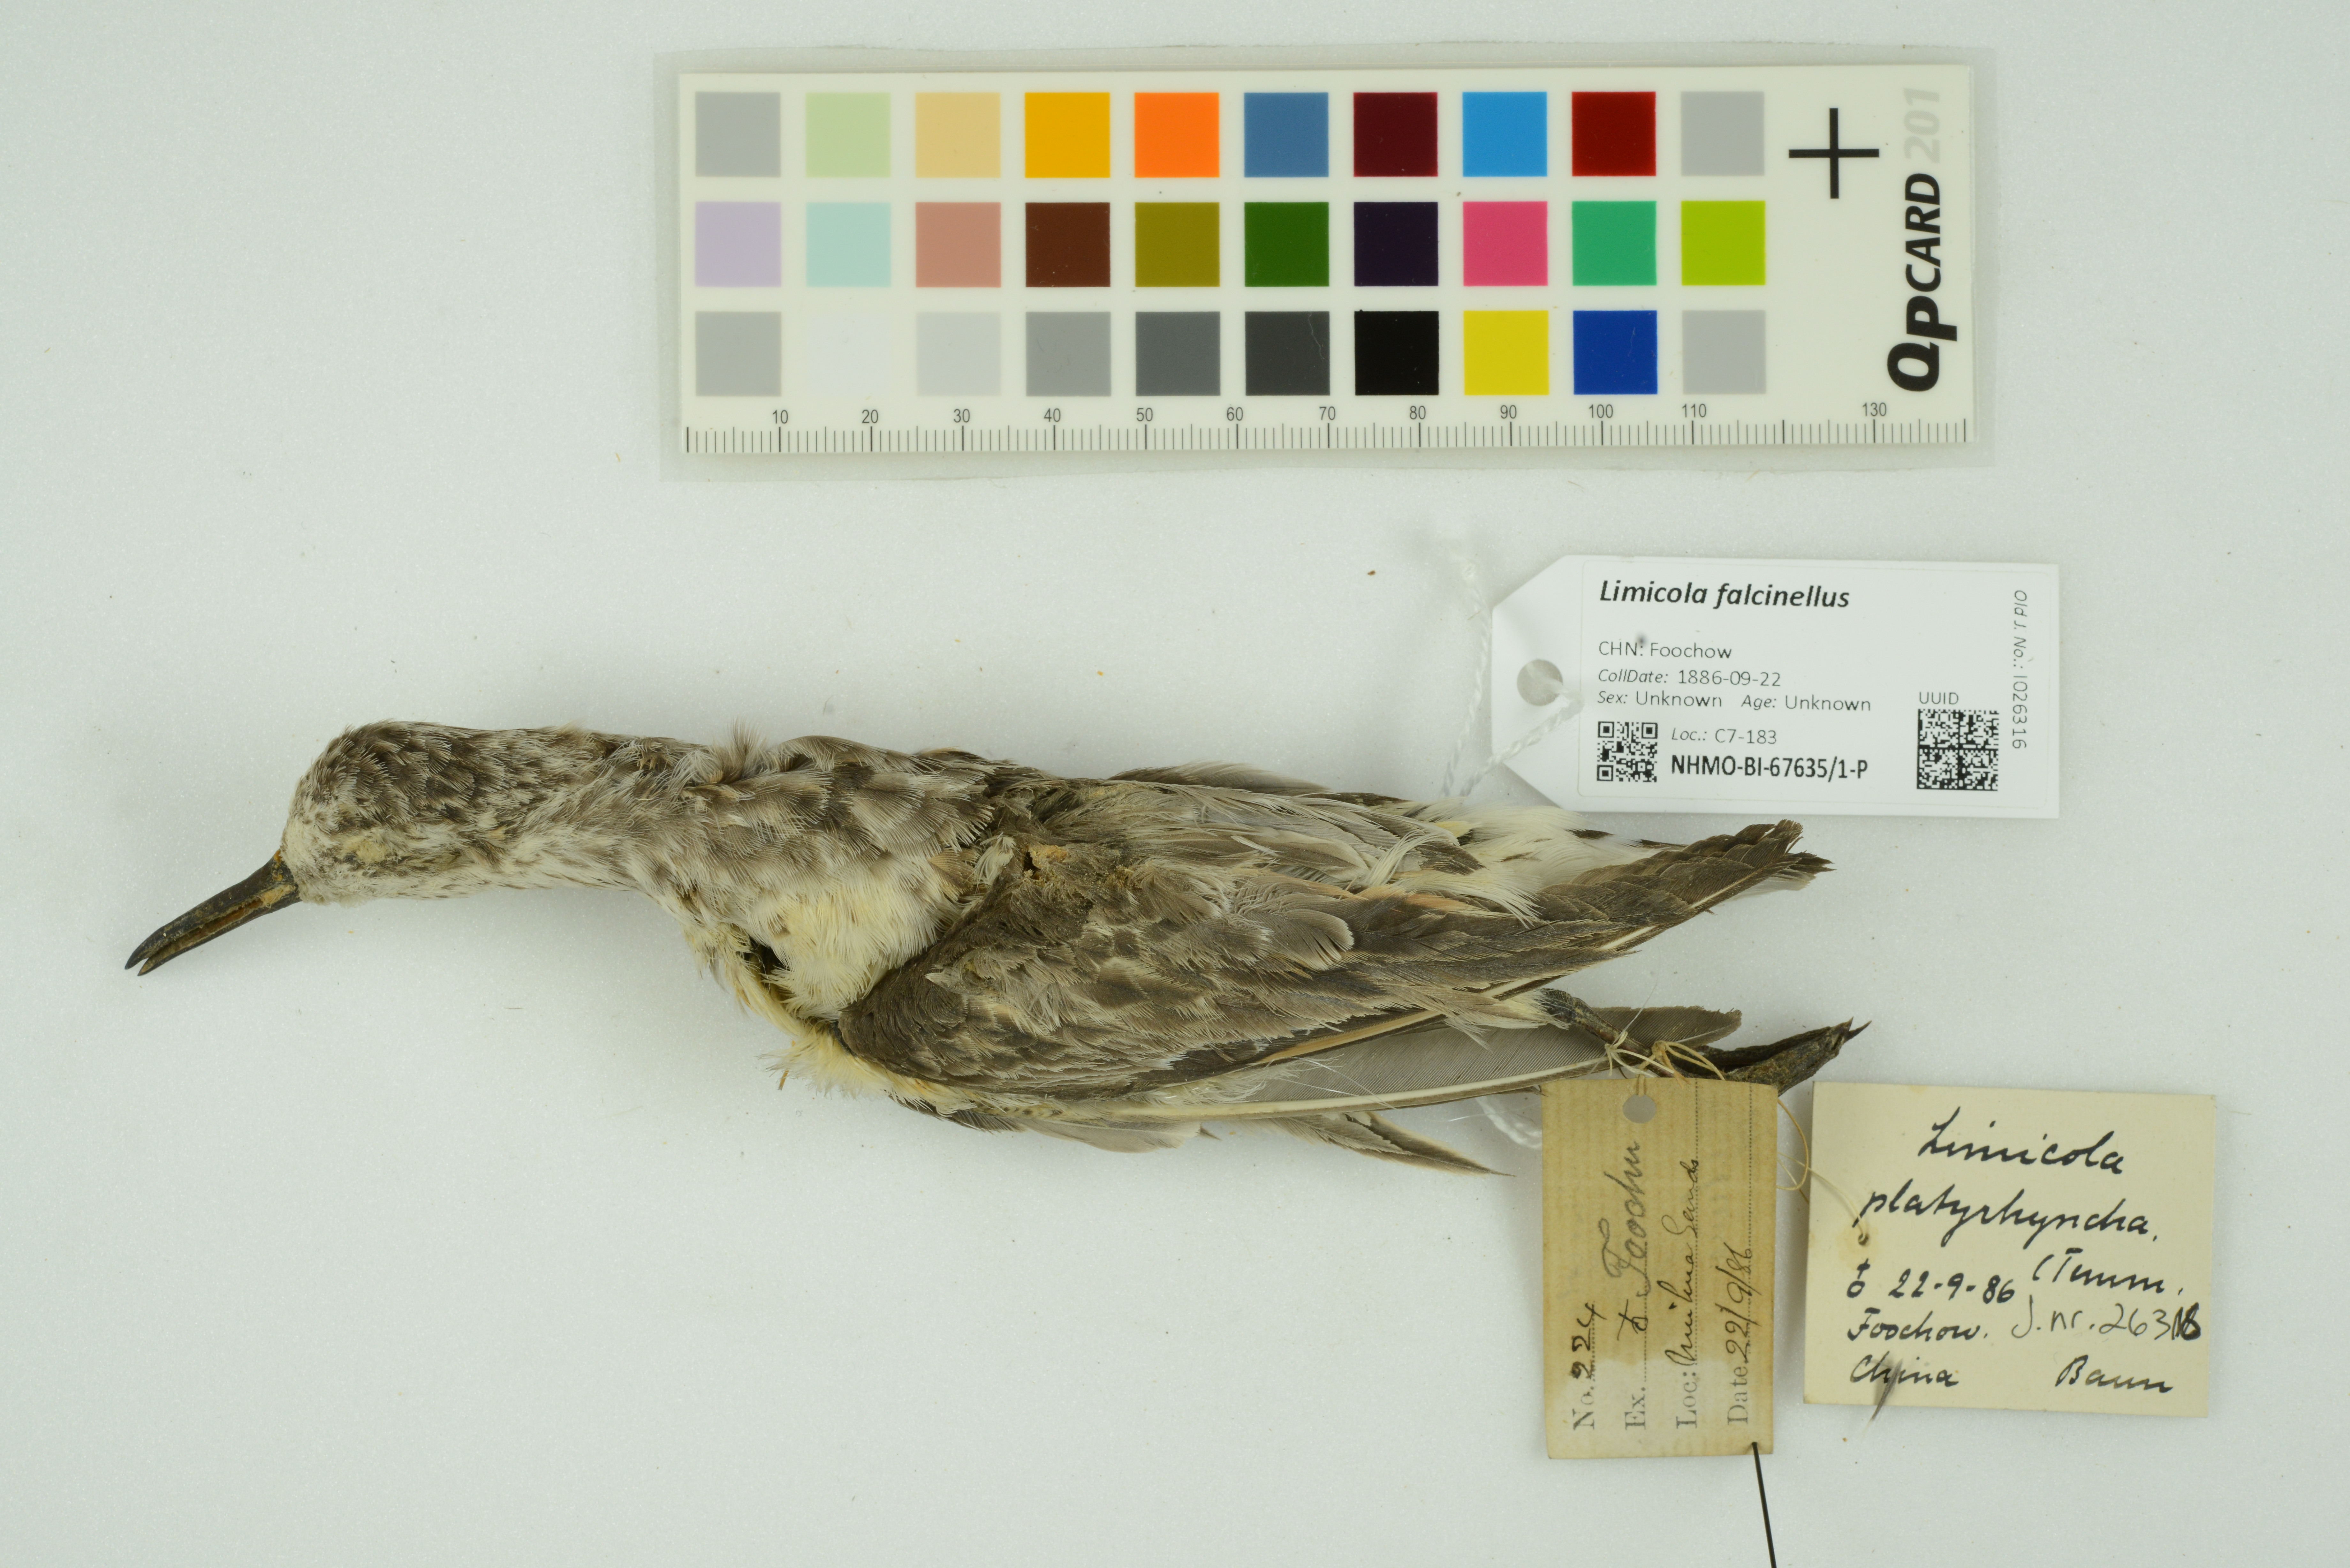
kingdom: Animalia
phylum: Chordata
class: Aves
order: Charadriiformes
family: Scolopacidae
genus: Calidris
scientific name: Calidris falcinellus
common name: Broad-billed sandpiper
